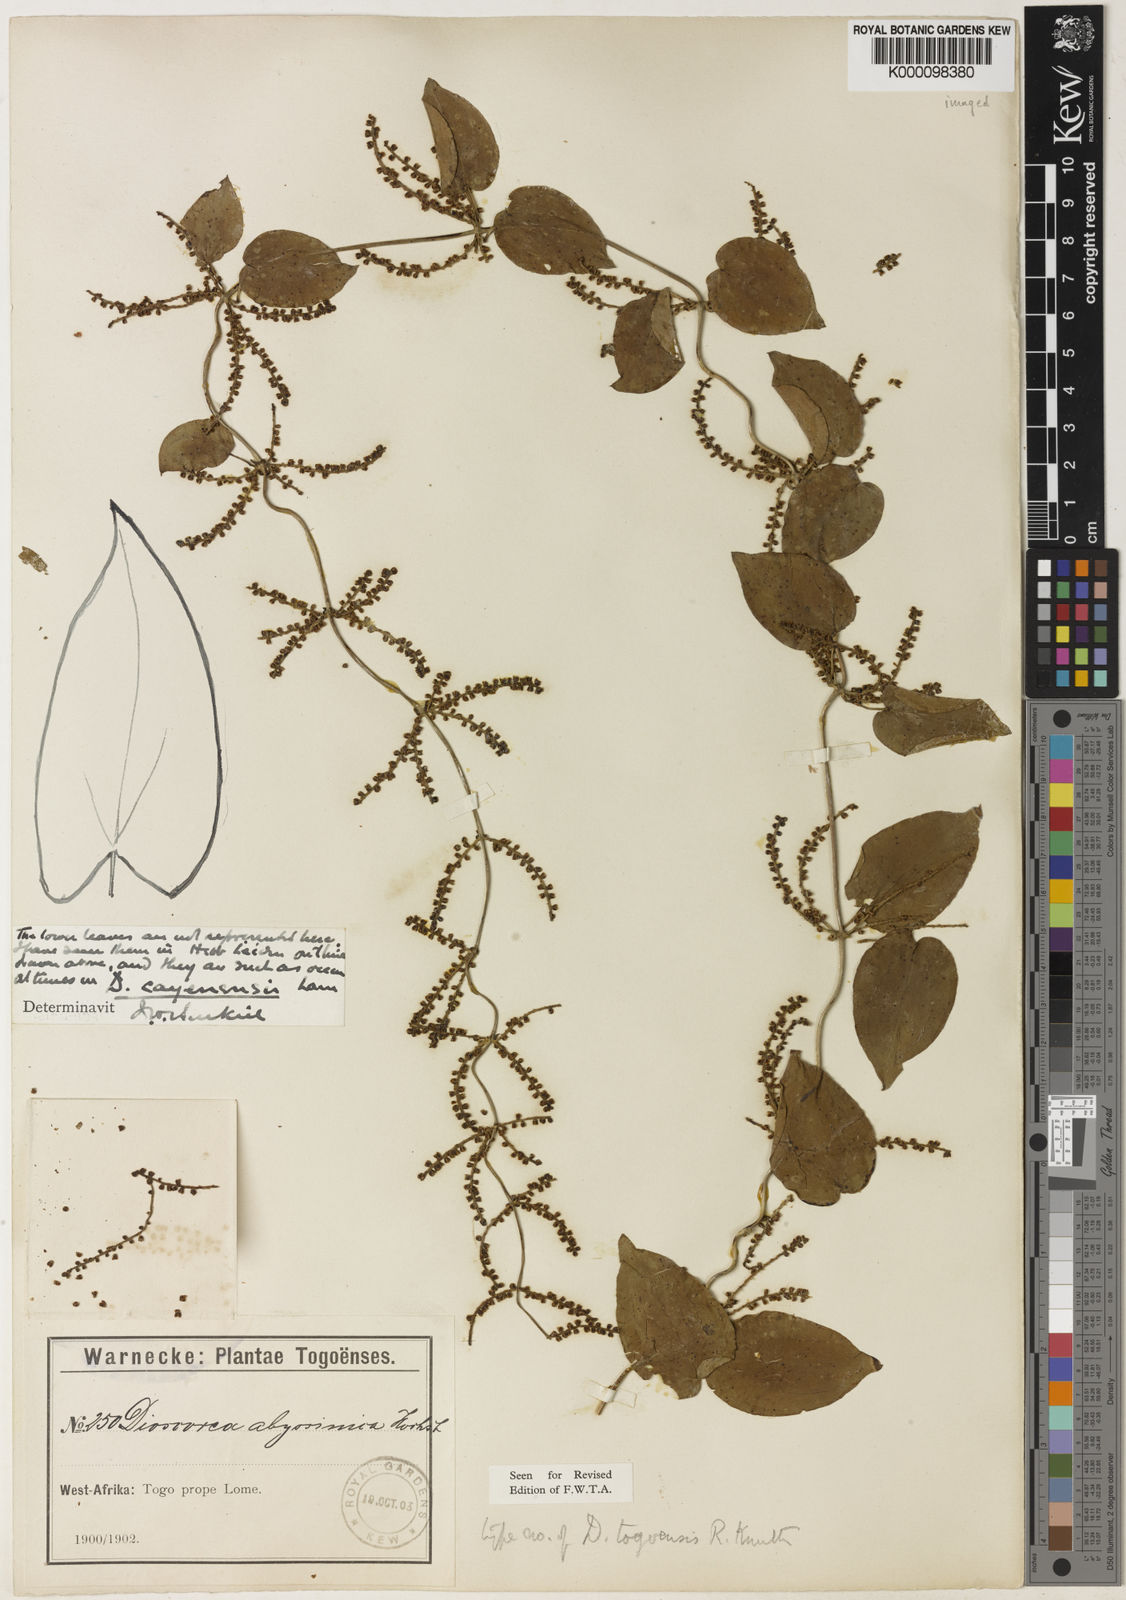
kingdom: Plantae
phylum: Tracheophyta
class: Liliopsida
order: Dioscoreales
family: Dioscoreaceae
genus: Dioscorea
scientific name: Dioscorea togoensis
